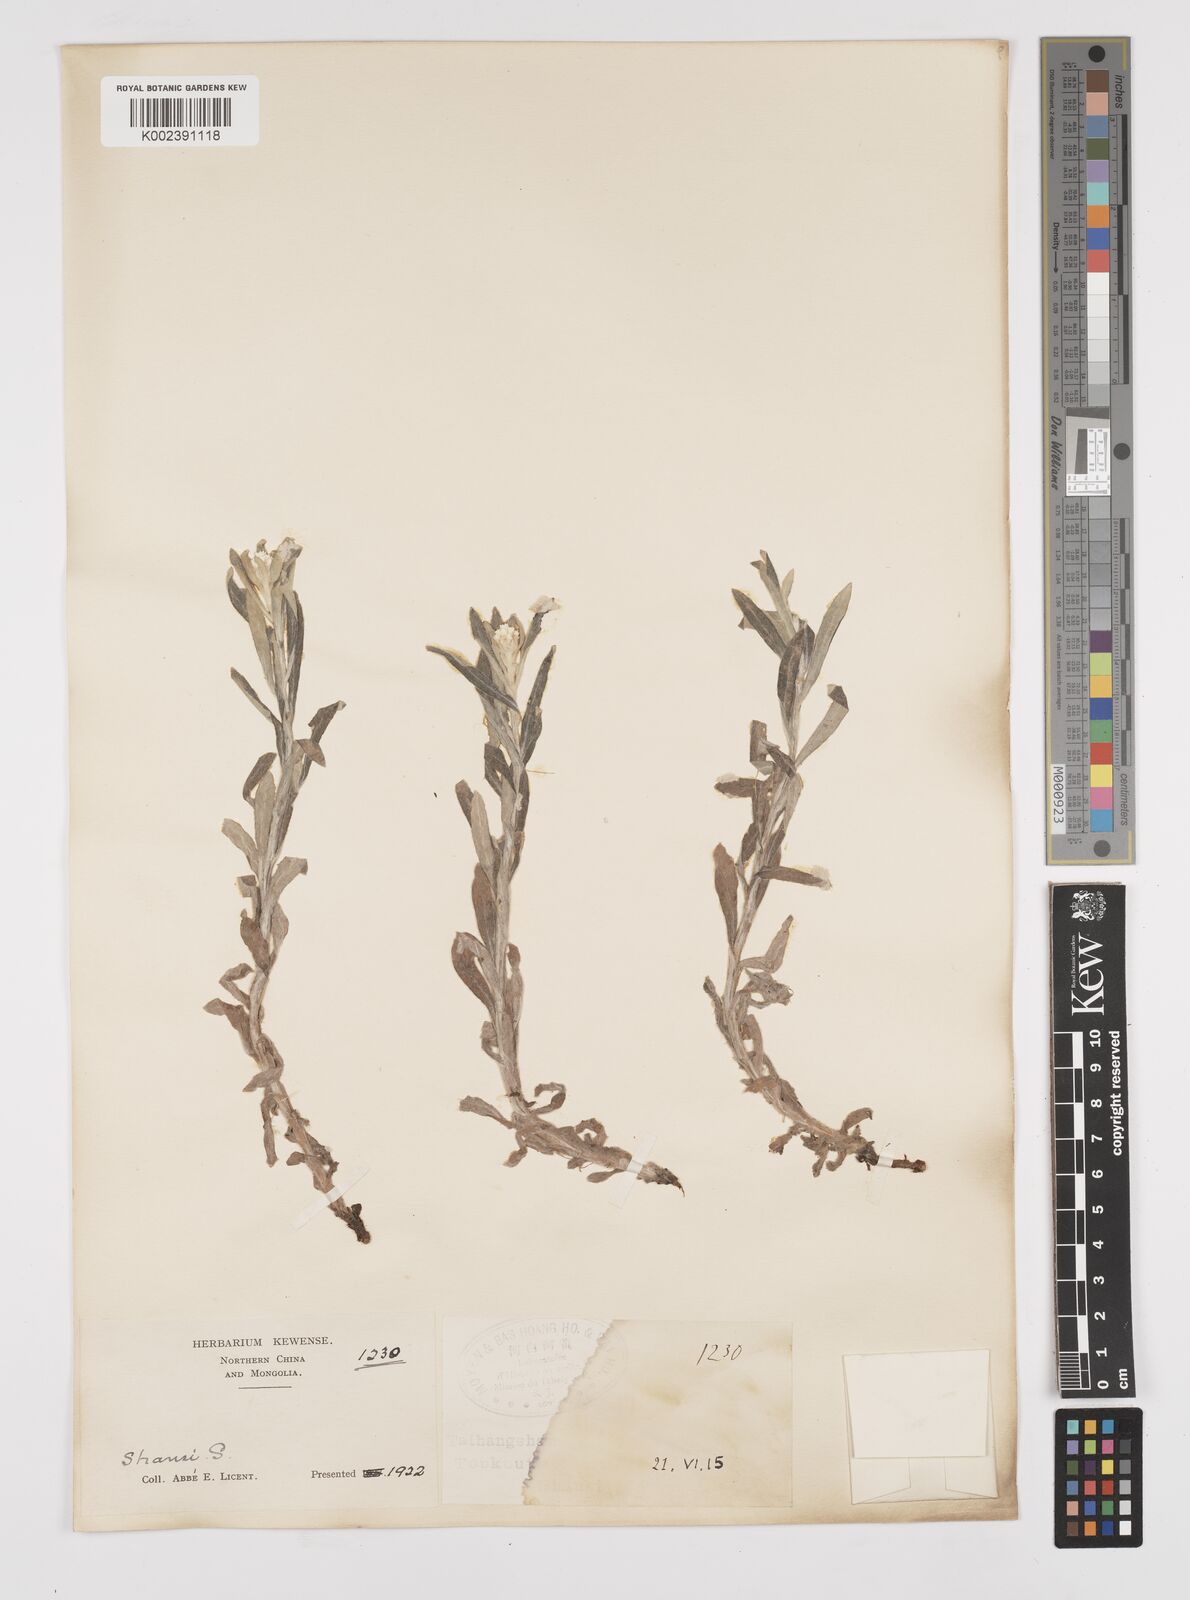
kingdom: Plantae
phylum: Tracheophyta
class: Magnoliopsida
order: Asterales
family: Asteraceae
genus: Anaphalis
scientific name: Anaphalis margaritacea
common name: Pearly everlasting
